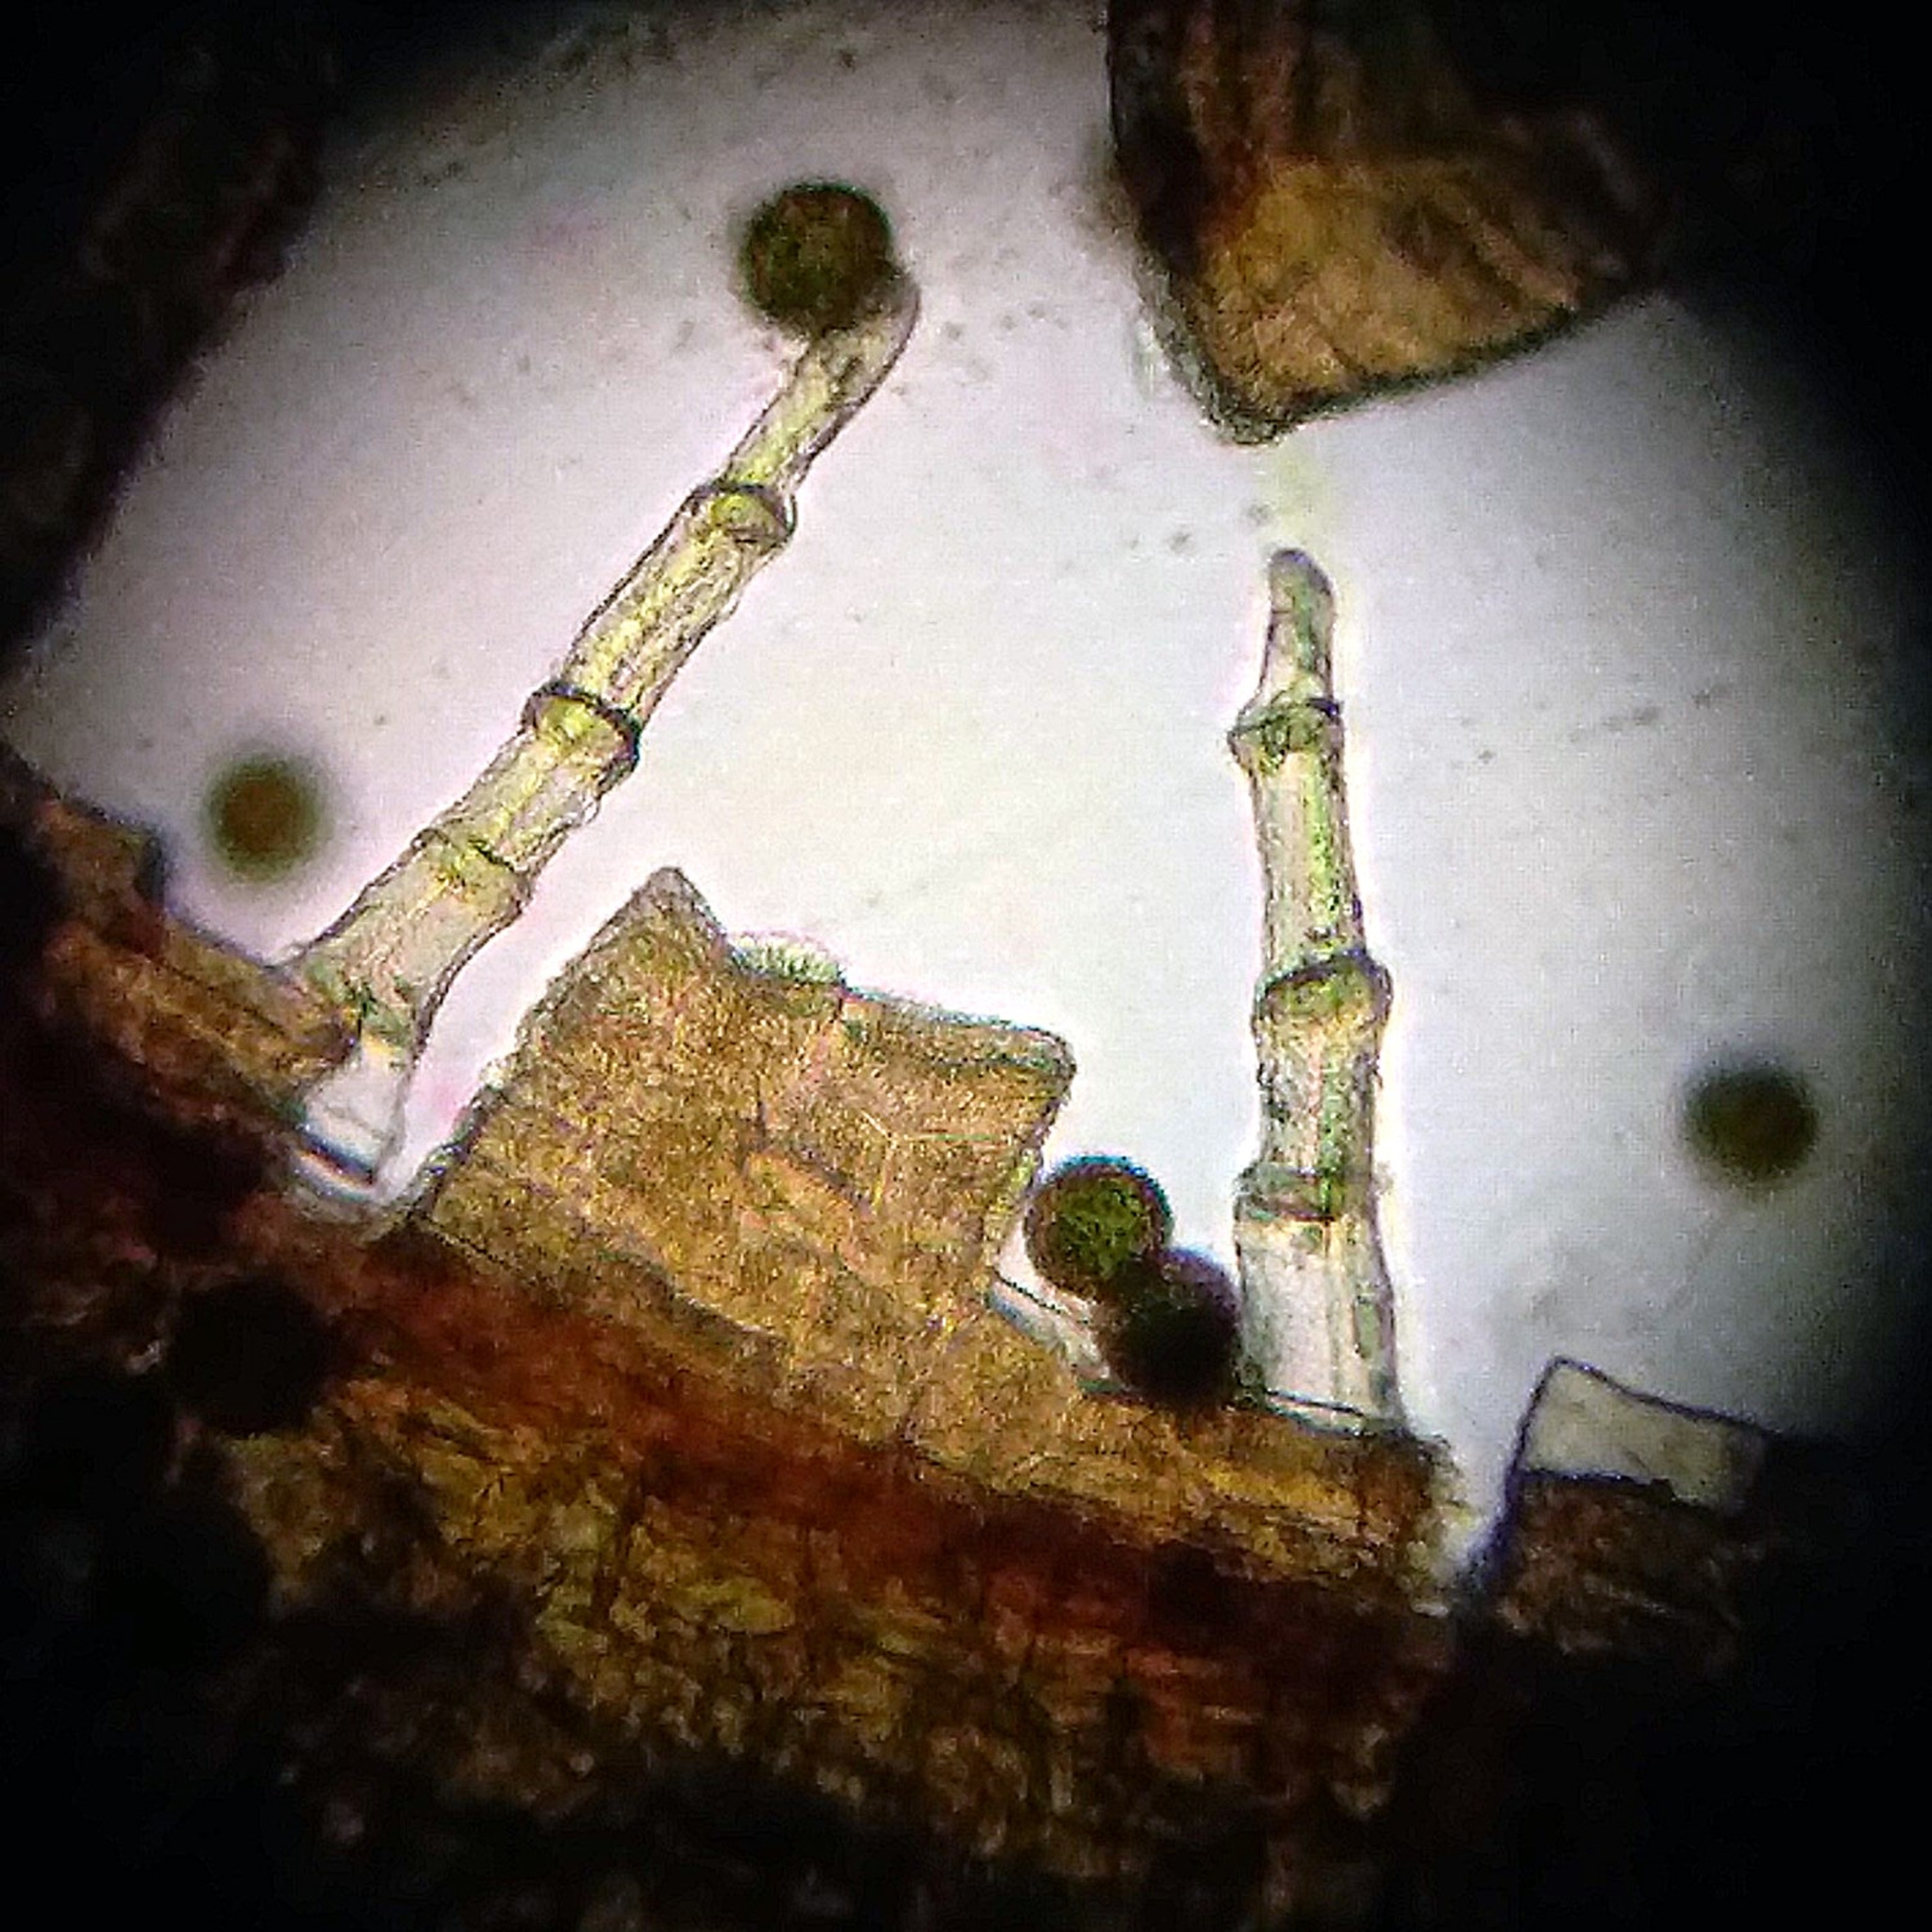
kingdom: Plantae
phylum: Bryophyta
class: Bryopsida
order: Orthotrichales
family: Orthotrichaceae
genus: Ulota
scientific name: Ulota intermedia
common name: Mellem-låddenhætte
